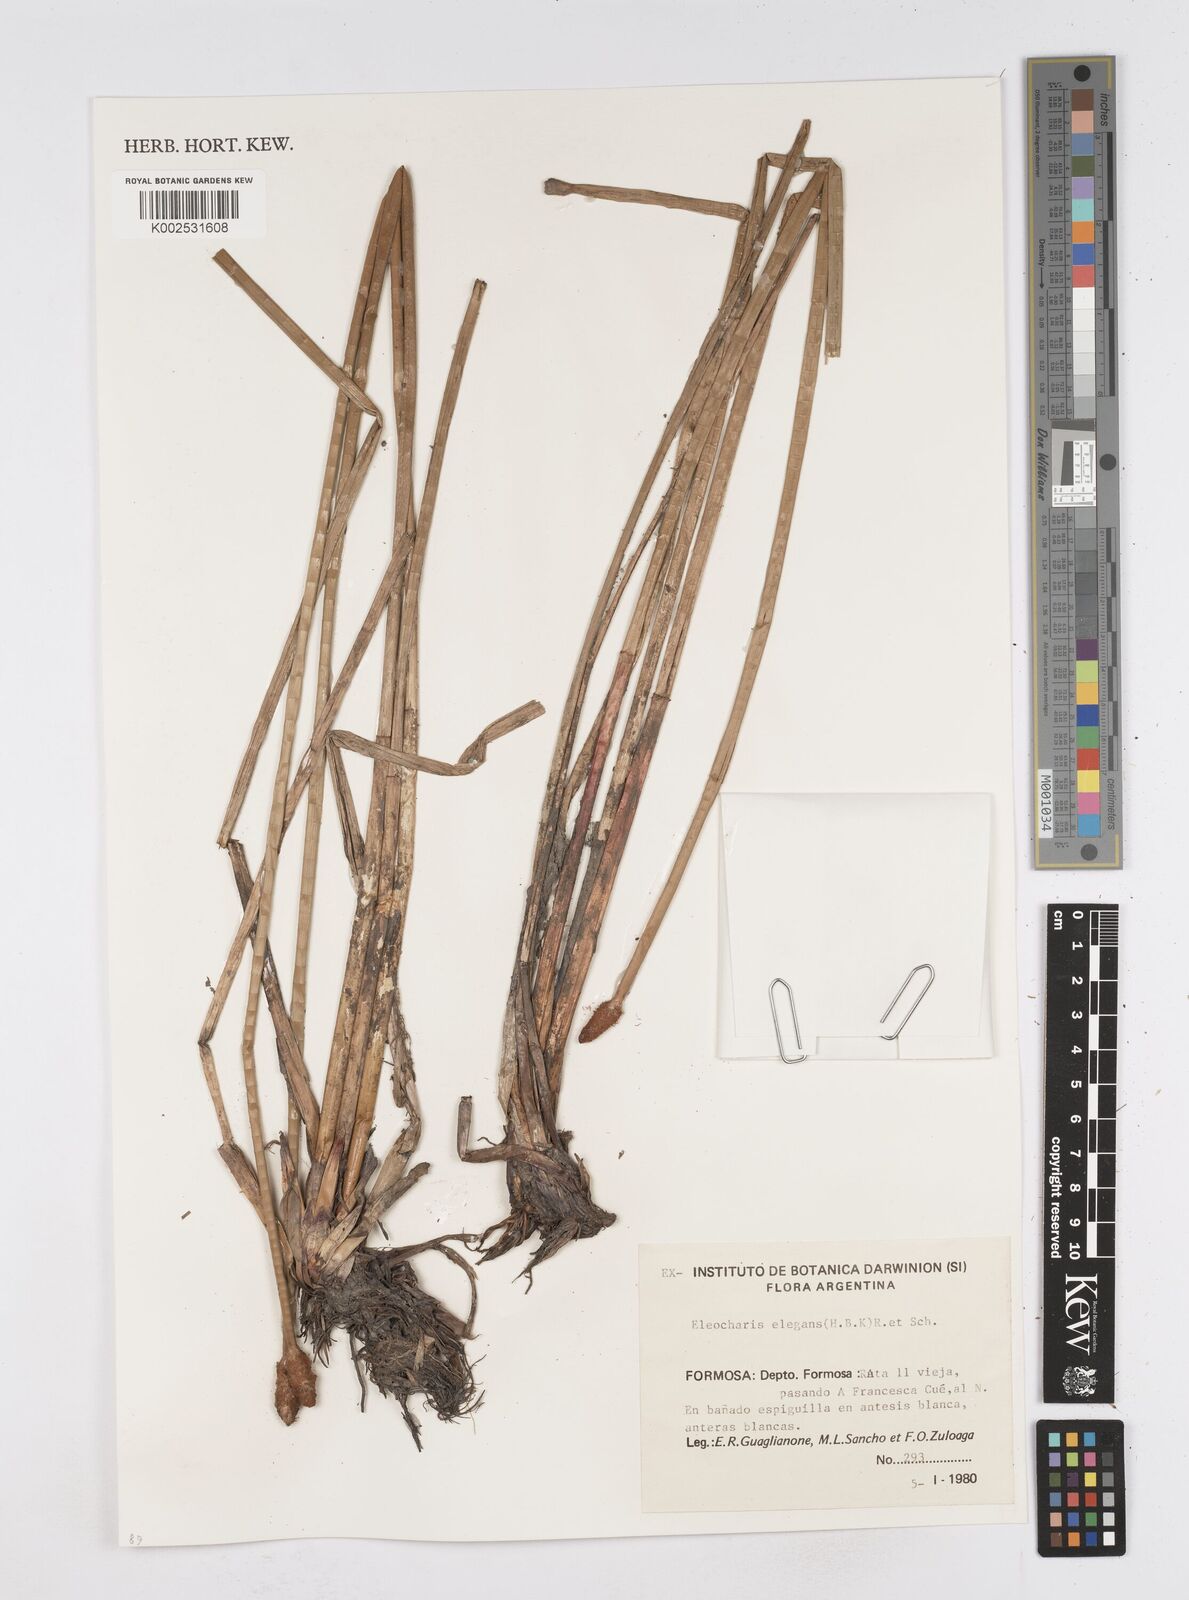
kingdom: Plantae
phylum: Tracheophyta
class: Liliopsida
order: Poales
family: Cyperaceae
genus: Eleocharis
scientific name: Eleocharis elegans
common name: Elegant spike-rush
